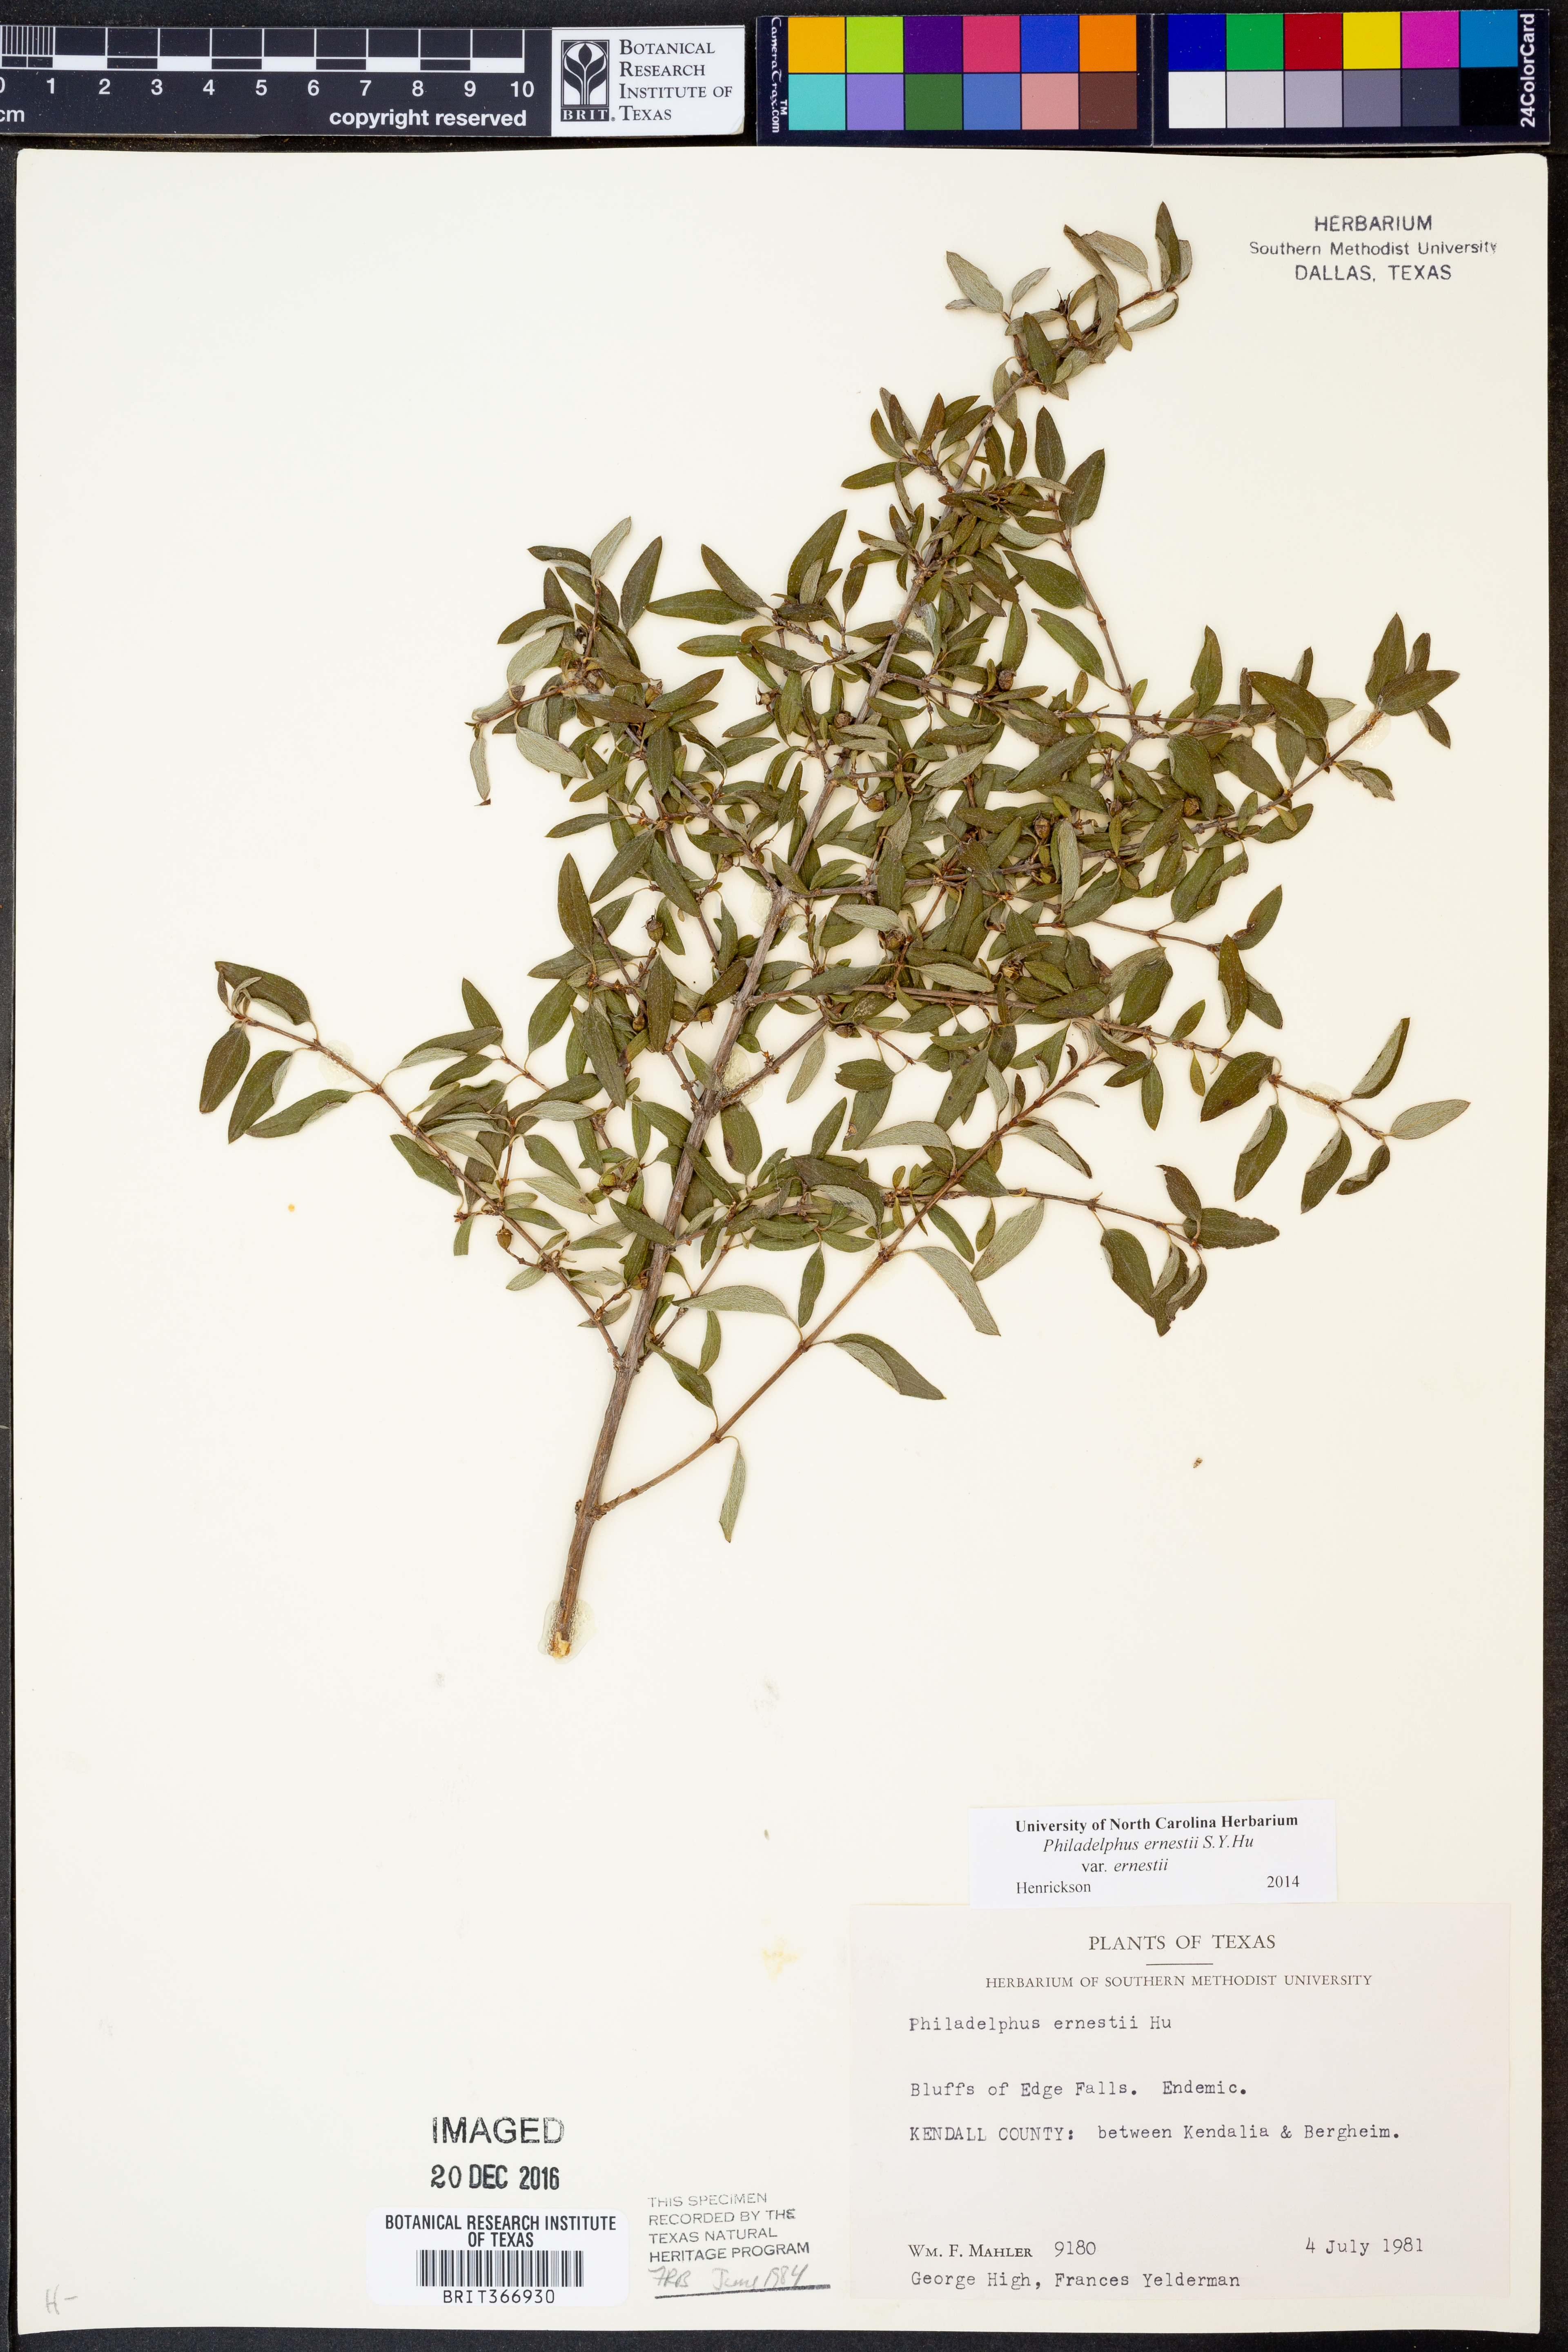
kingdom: Plantae
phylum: Tracheophyta
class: Magnoliopsida
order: Cornales
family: Hydrangeaceae
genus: Philadelphus
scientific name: Philadelphus texensis
